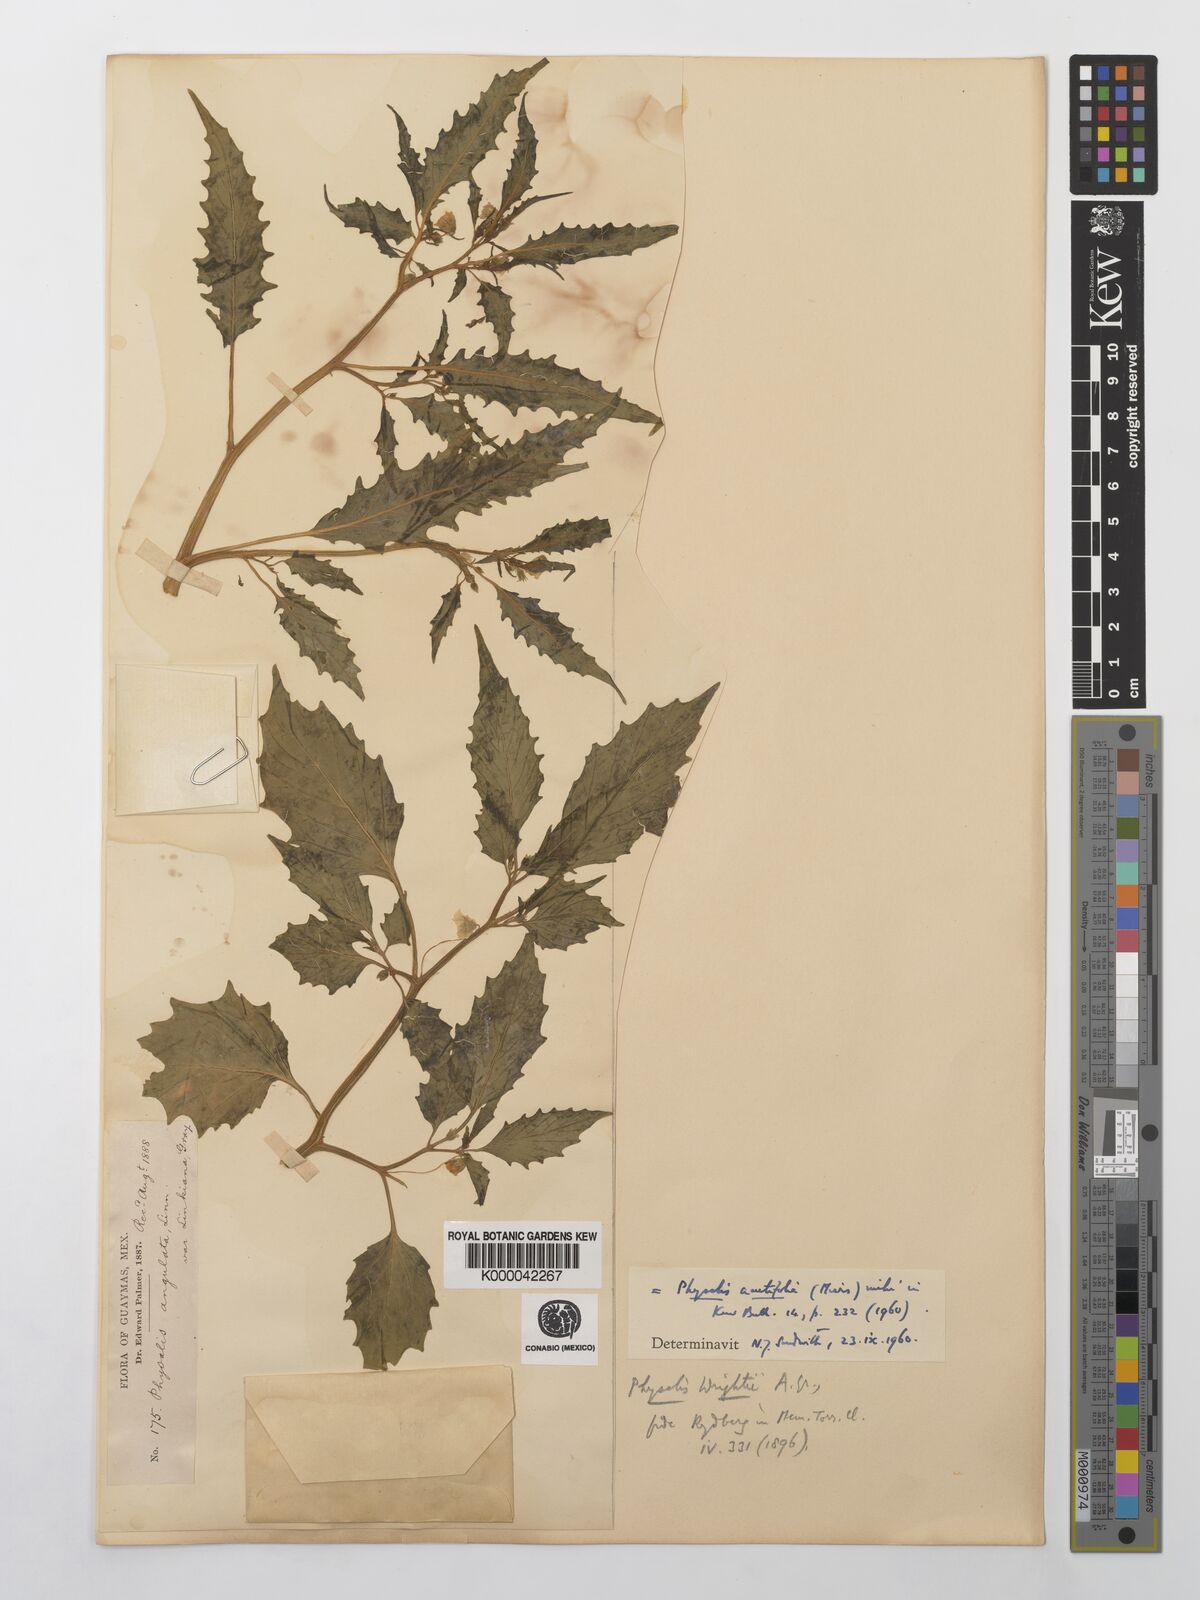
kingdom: Plantae
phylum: Tracheophyta
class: Magnoliopsida
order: Solanales
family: Solanaceae
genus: Physalis
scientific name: Physalis acutifolia
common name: Wright's ground-cherry
